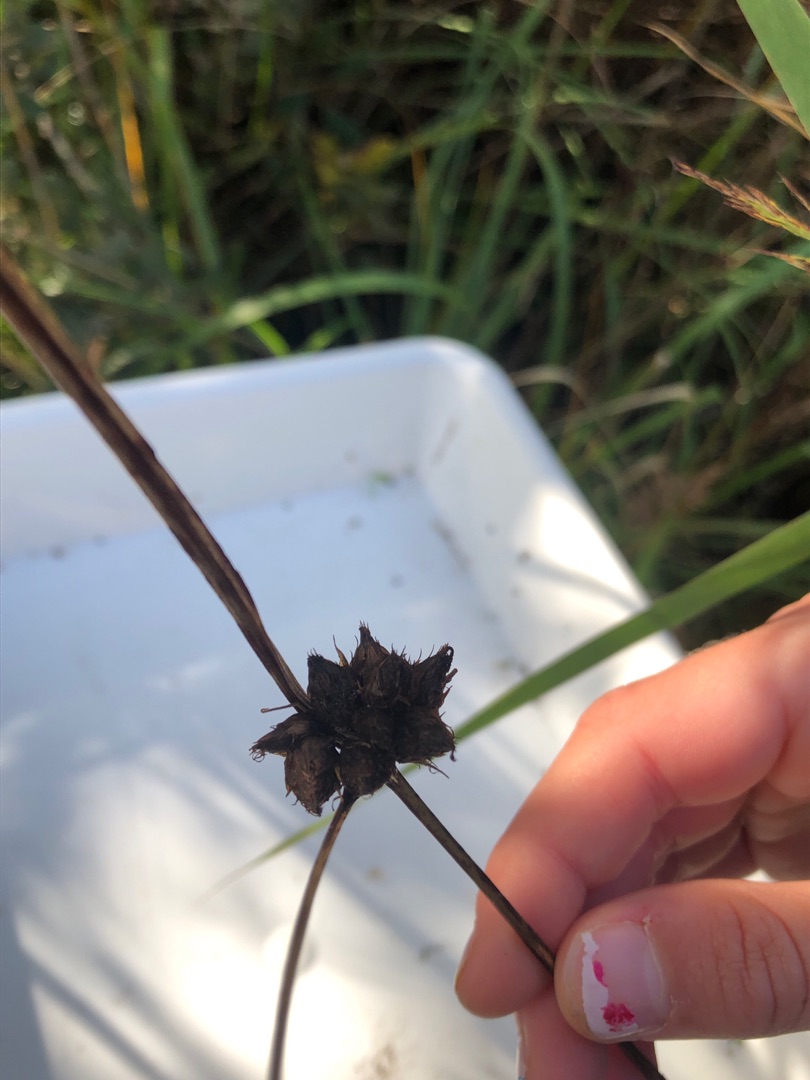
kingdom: Plantae
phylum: Tracheophyta
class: Liliopsida
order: Poales
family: Cyperaceae
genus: Bolboschoenus
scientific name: Bolboschoenus maritimus
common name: Strand-kogleaks
